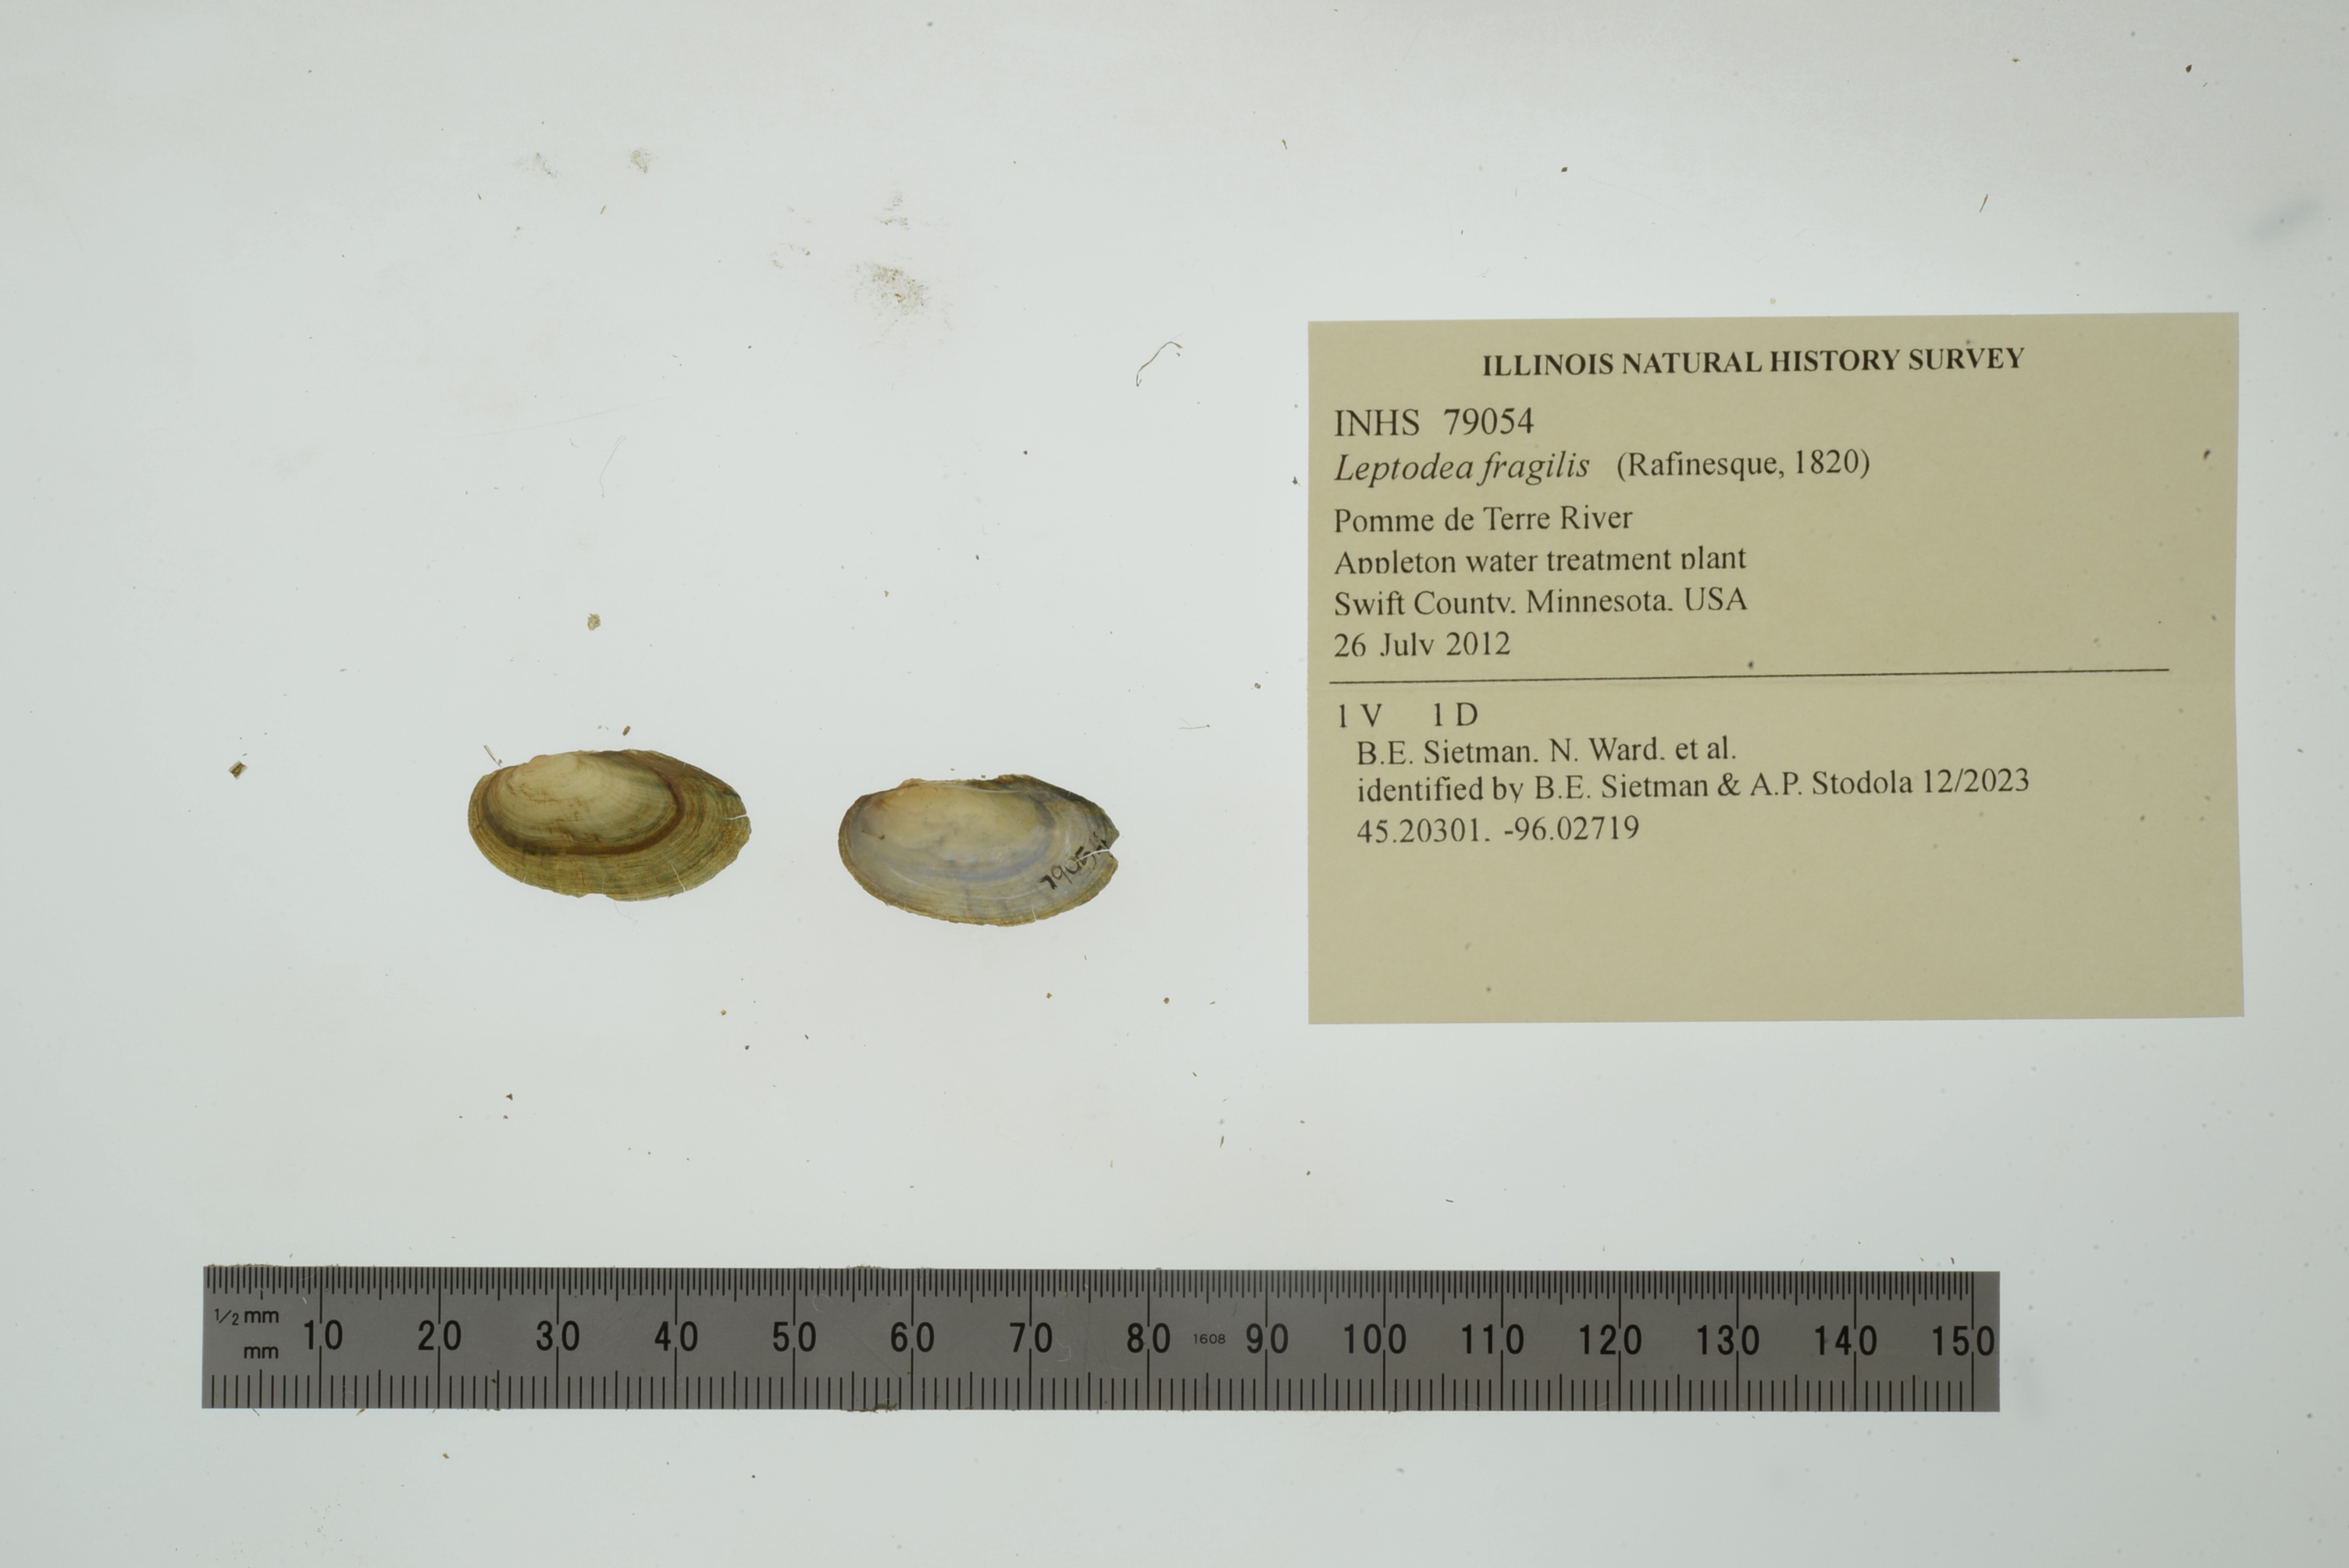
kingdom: Animalia
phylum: Mollusca
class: Bivalvia
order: Unionida
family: Unionidae
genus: Potamilus
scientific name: Potamilus fragilis
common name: Fragile papershell
